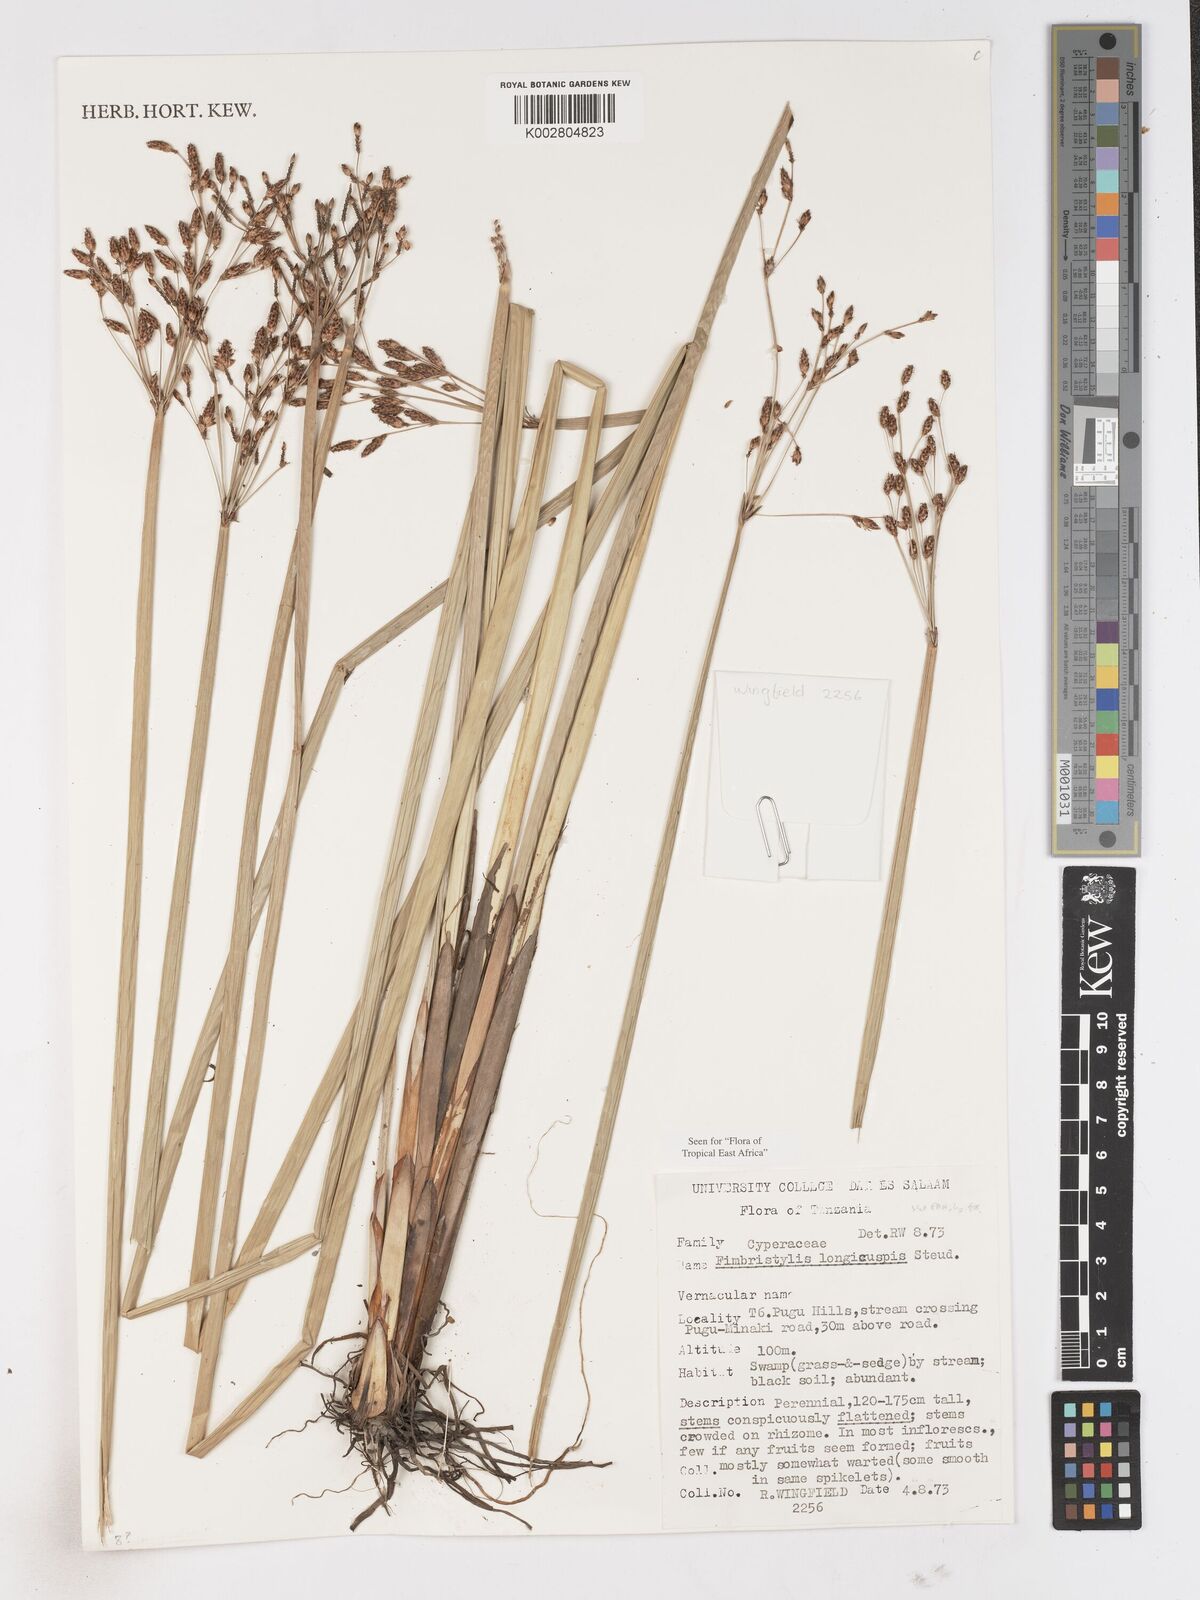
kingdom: Plantae
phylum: Tracheophyta
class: Liliopsida
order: Poales
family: Cyperaceae
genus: Fimbristylis
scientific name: Fimbristylis bivalvis
